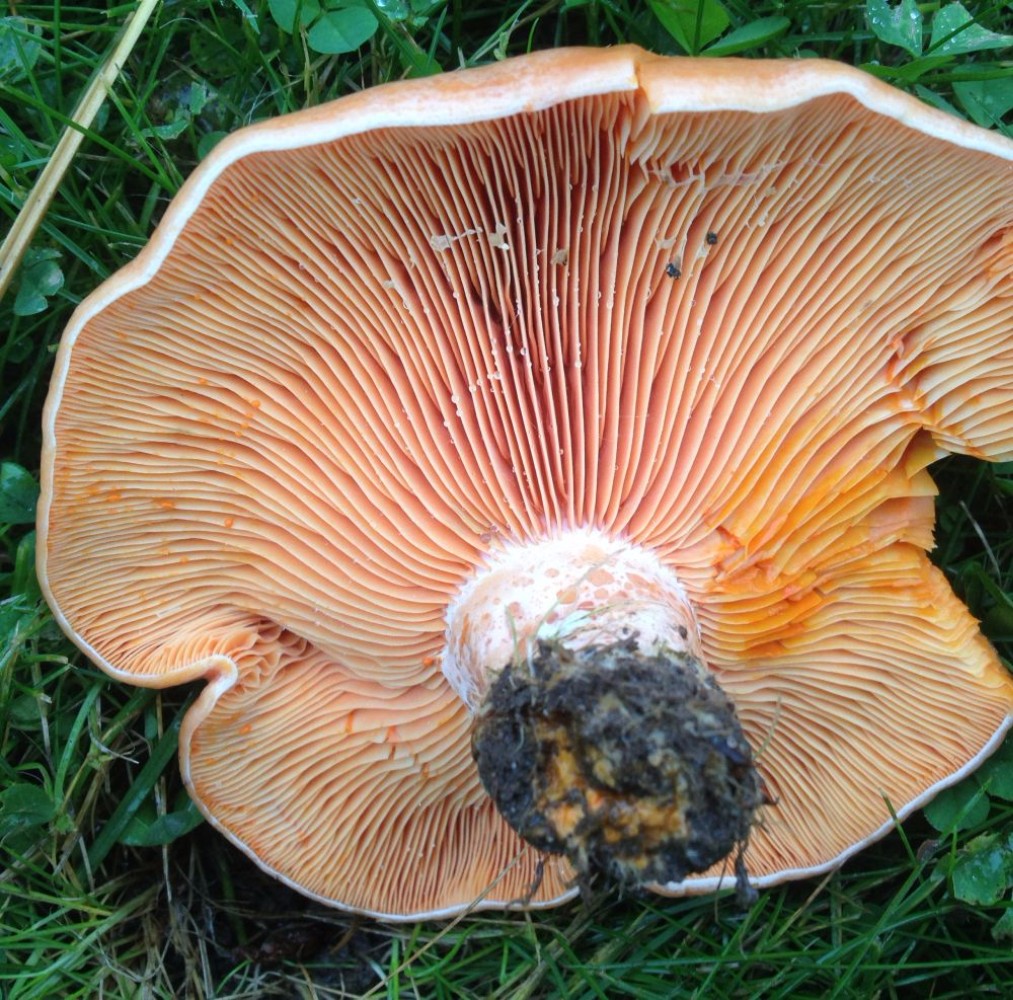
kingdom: Fungi
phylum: Basidiomycota
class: Agaricomycetes
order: Russulales
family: Russulaceae
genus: Lactarius
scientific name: Lactarius deliciosus
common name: velsmagende mælkehat
